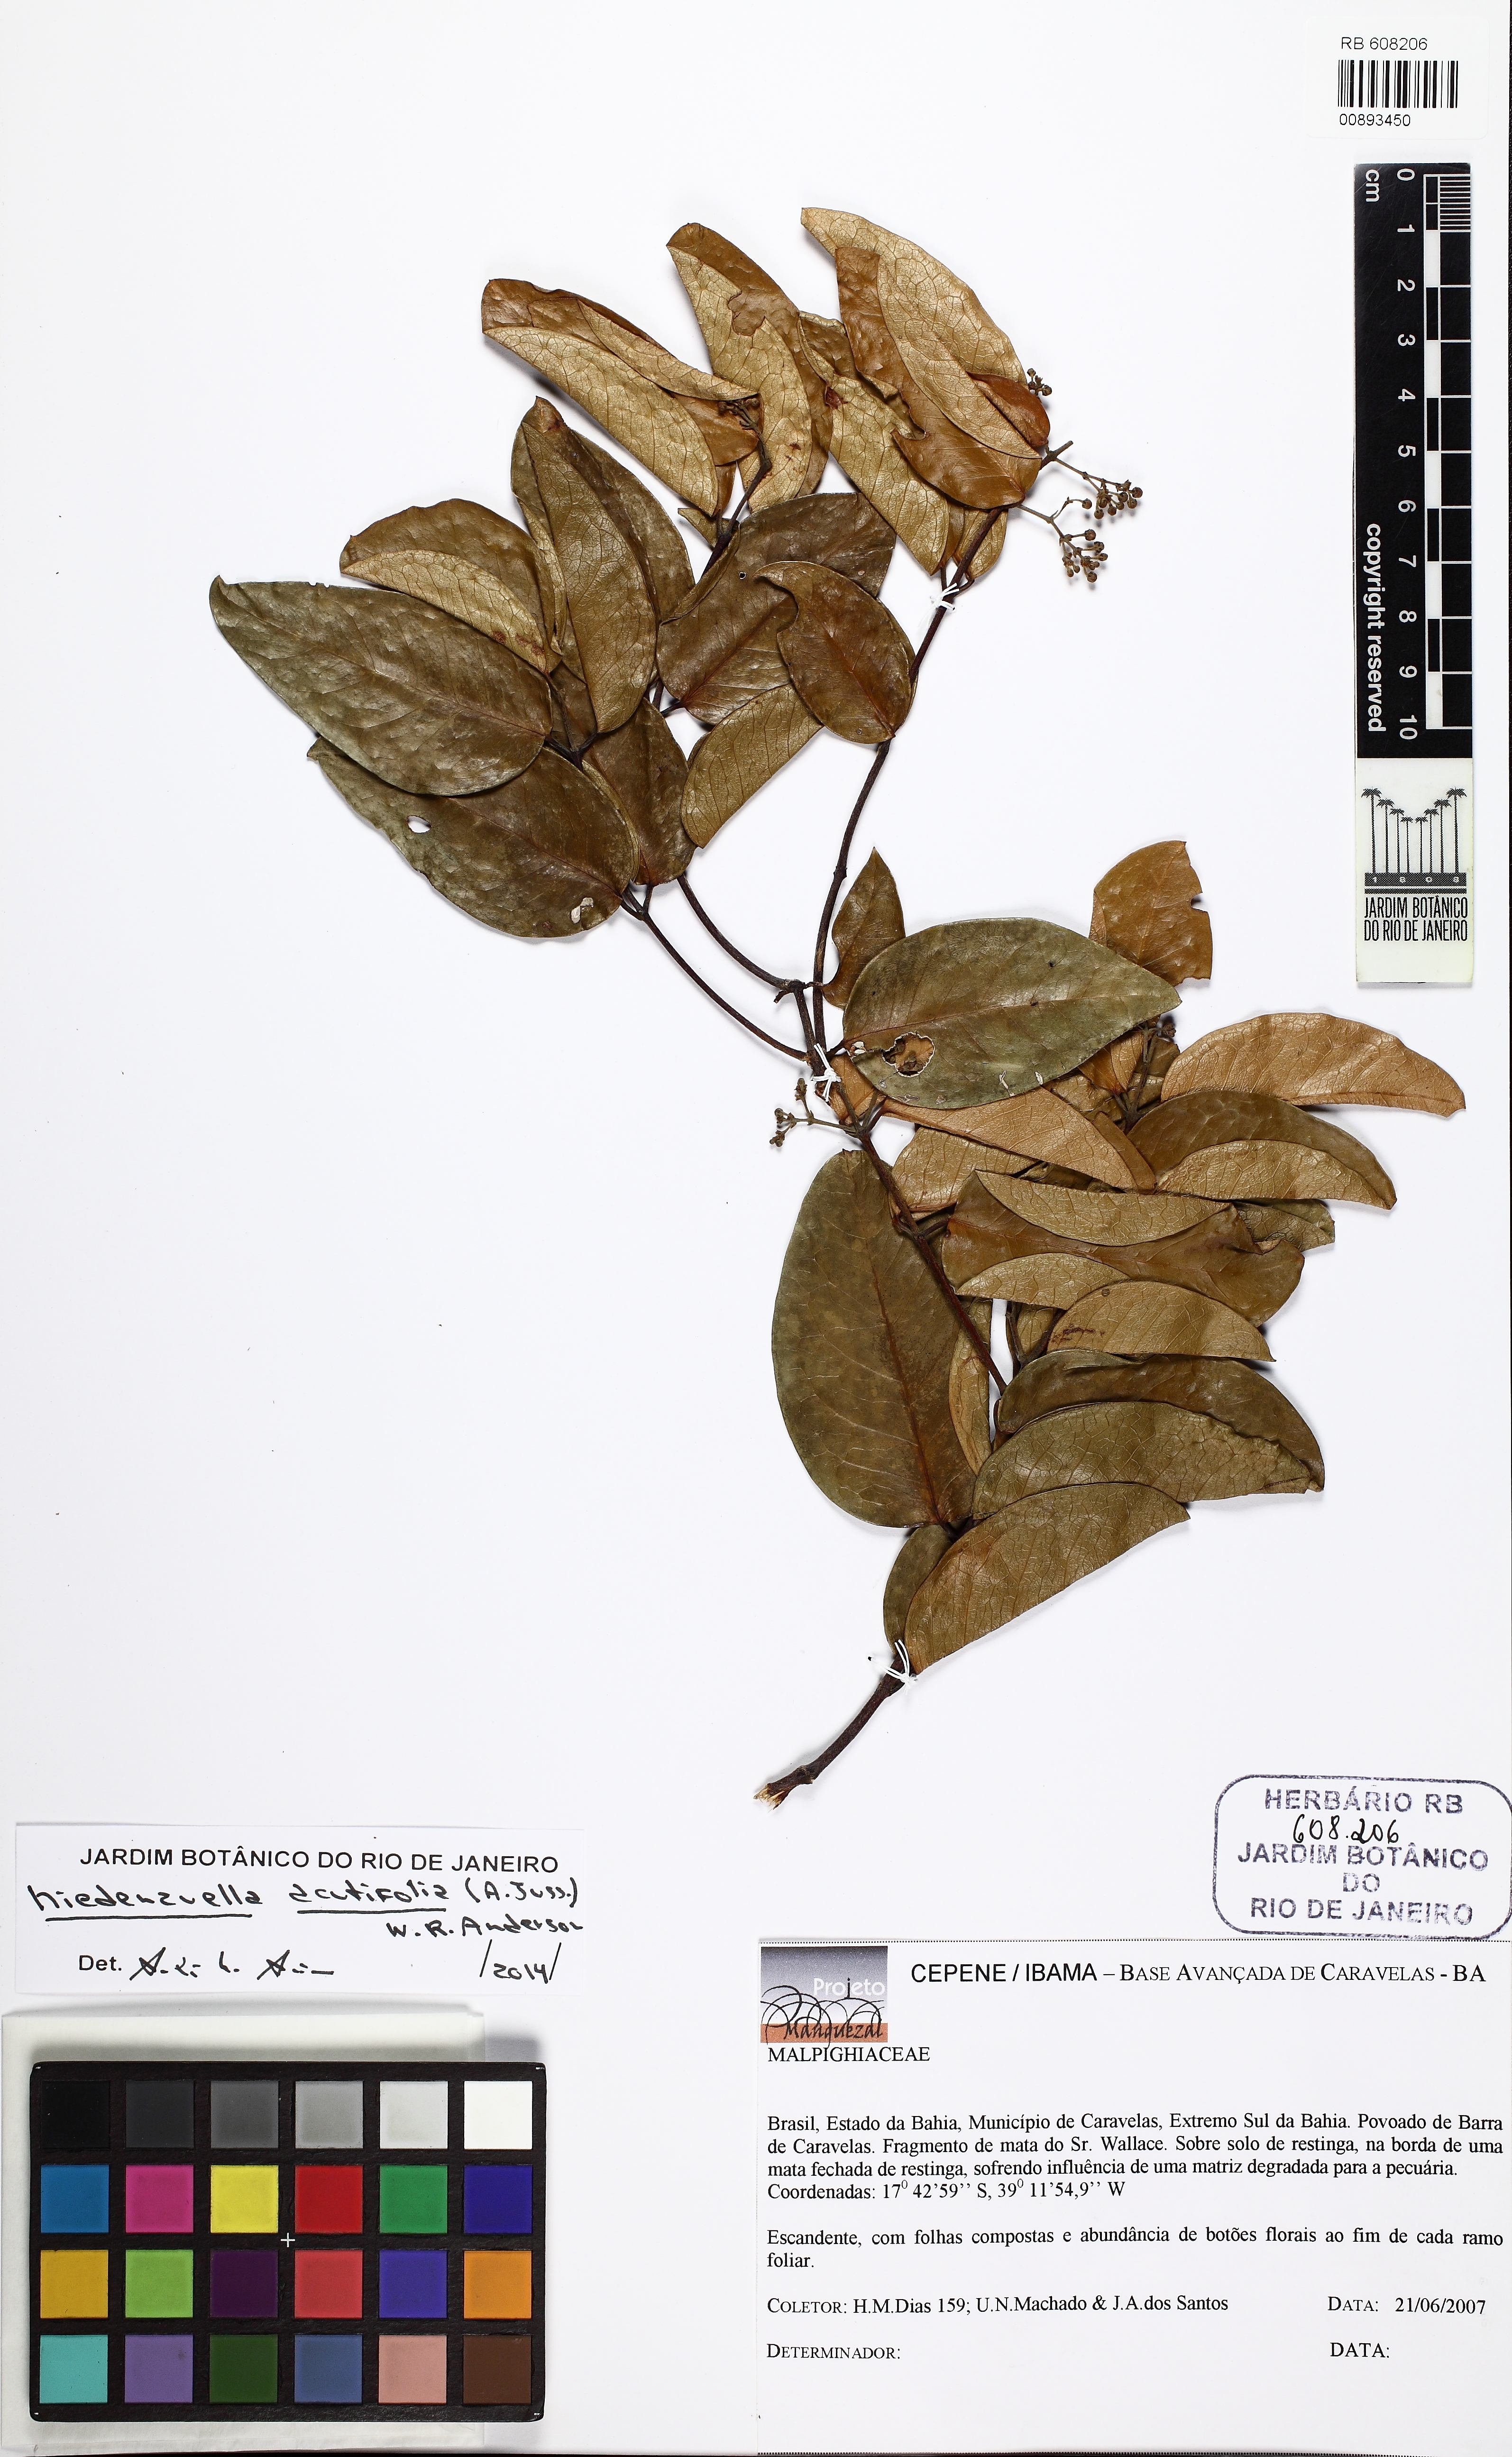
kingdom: Plantae
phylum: Tracheophyta
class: Magnoliopsida
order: Malpighiales
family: Malpighiaceae
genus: Niedenzuella
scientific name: Niedenzuella acutifolia
